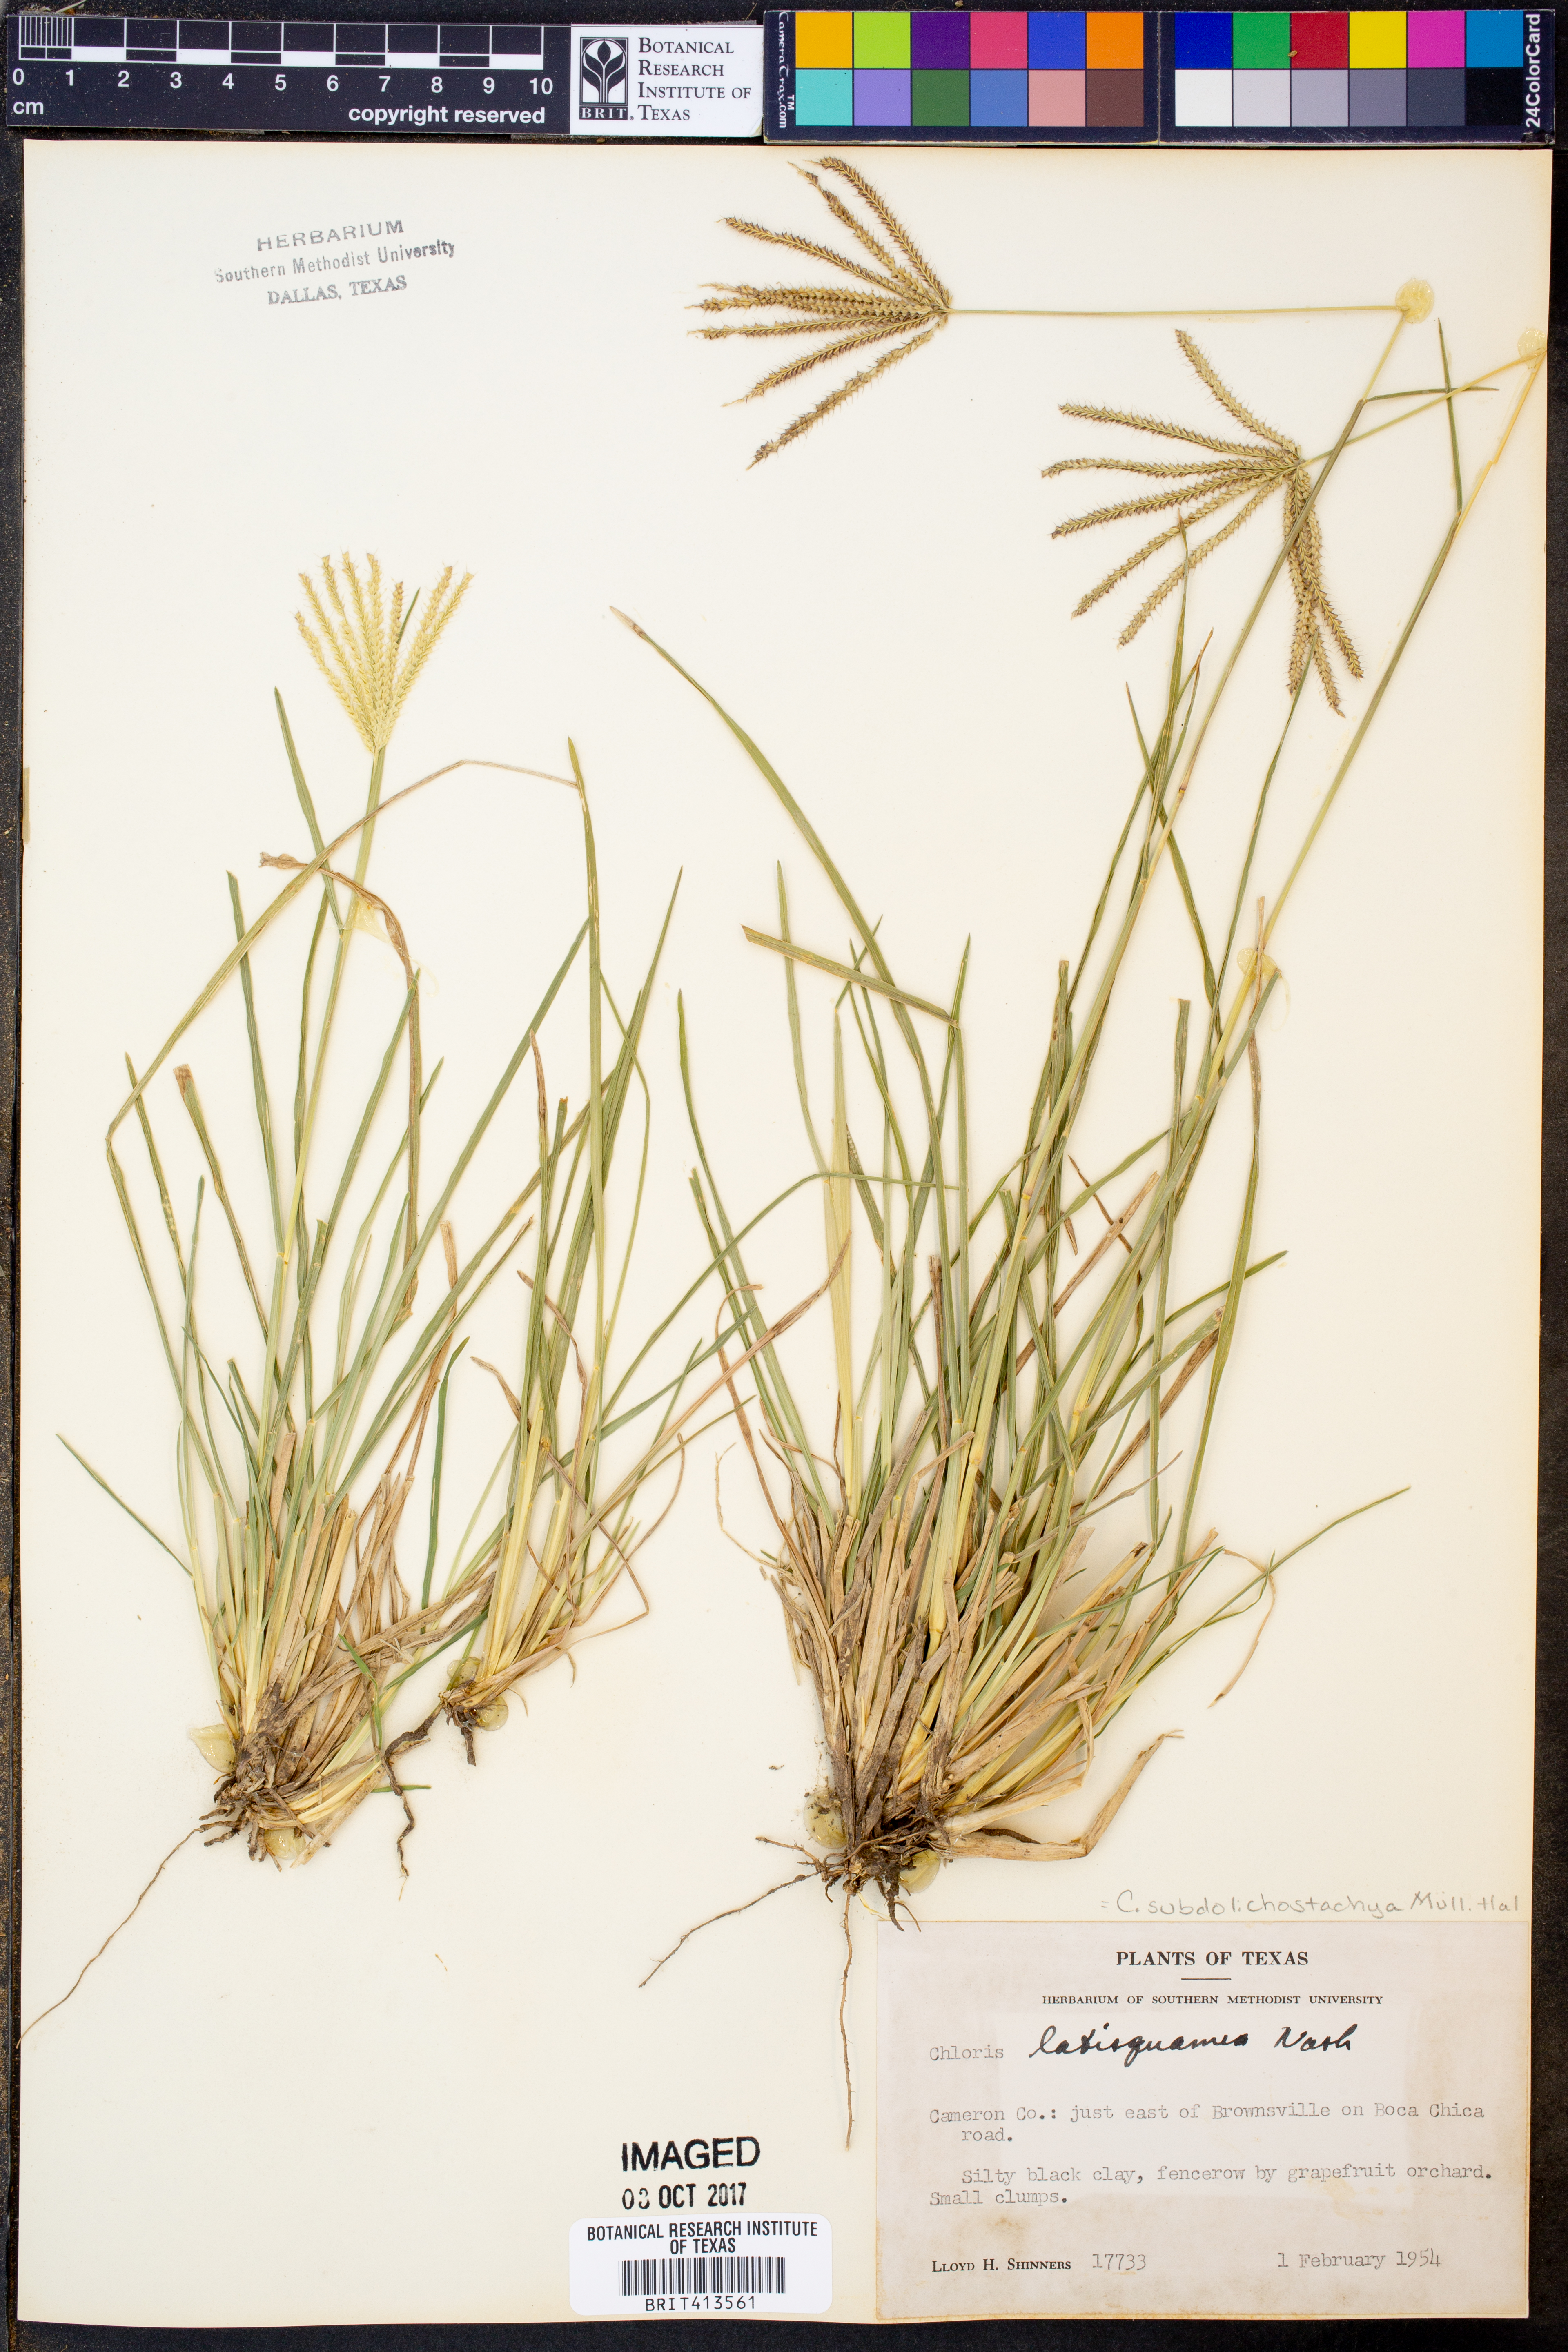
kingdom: Plantae
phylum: Tracheophyta
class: Liliopsida
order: Poales
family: Poaceae
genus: Chloris
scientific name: Chloris subdolichostachya
